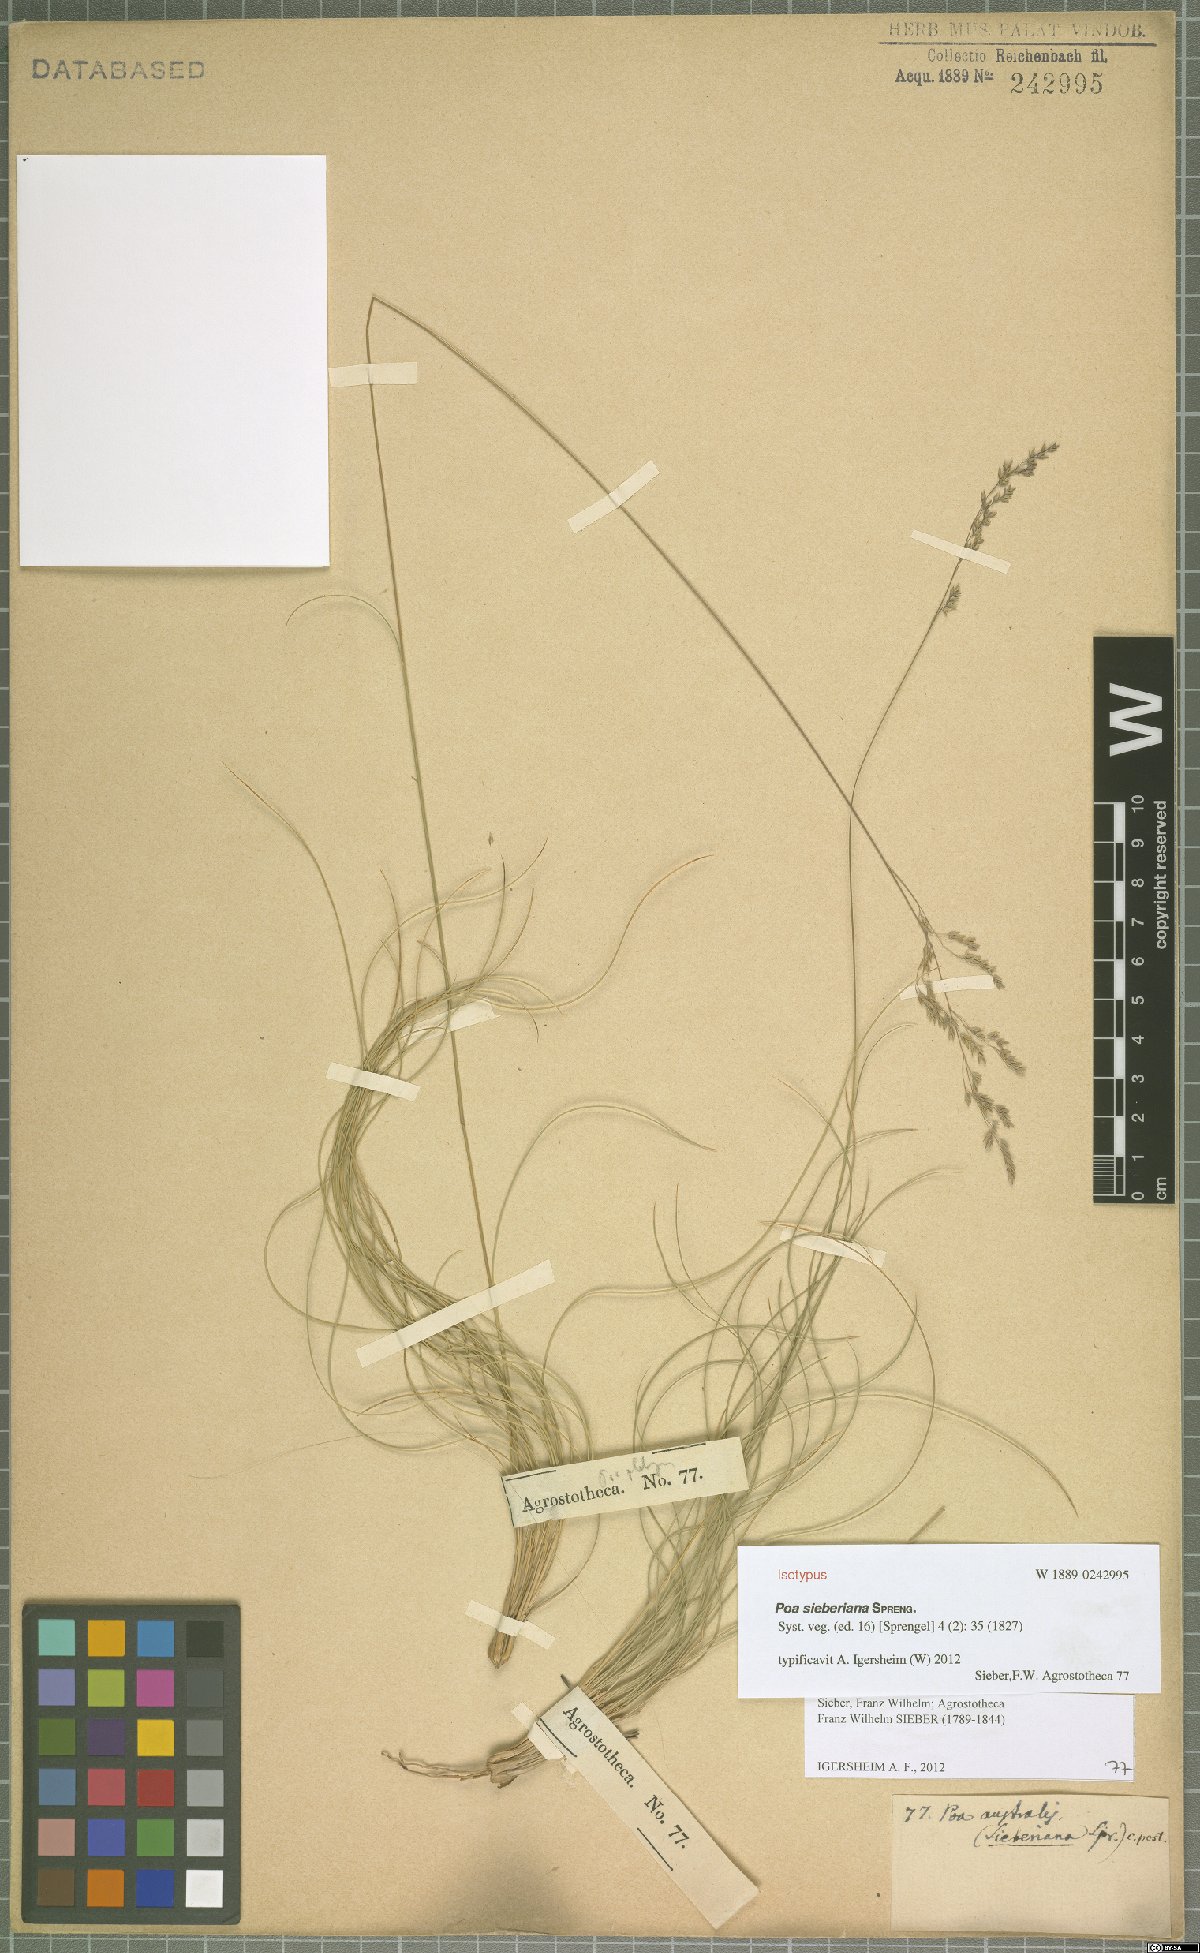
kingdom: Plantae
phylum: Tracheophyta
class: Liliopsida
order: Poales
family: Poaceae
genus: Poa
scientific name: Poa sieberiana
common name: Tussock poa
